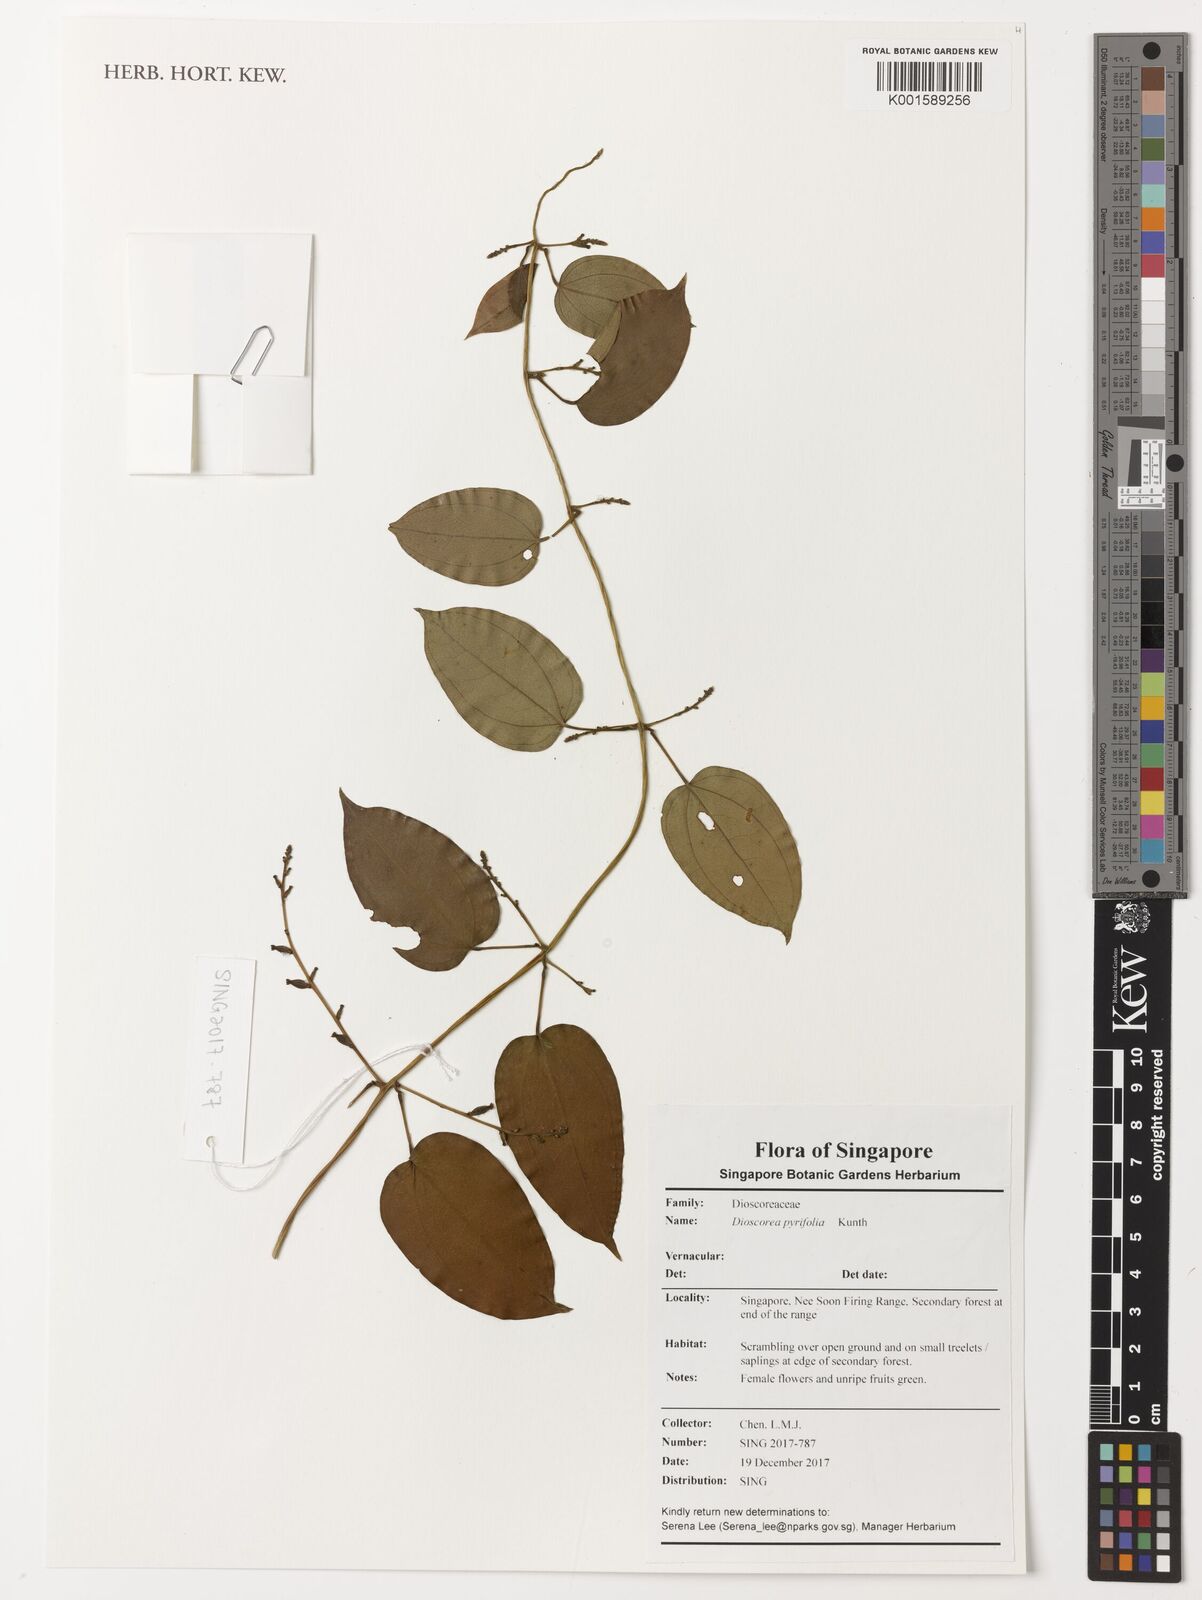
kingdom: Plantae
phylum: Tracheophyta
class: Liliopsida
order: Dioscoreales
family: Dioscoreaceae
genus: Dioscorea
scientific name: Dioscorea pyrifolia
